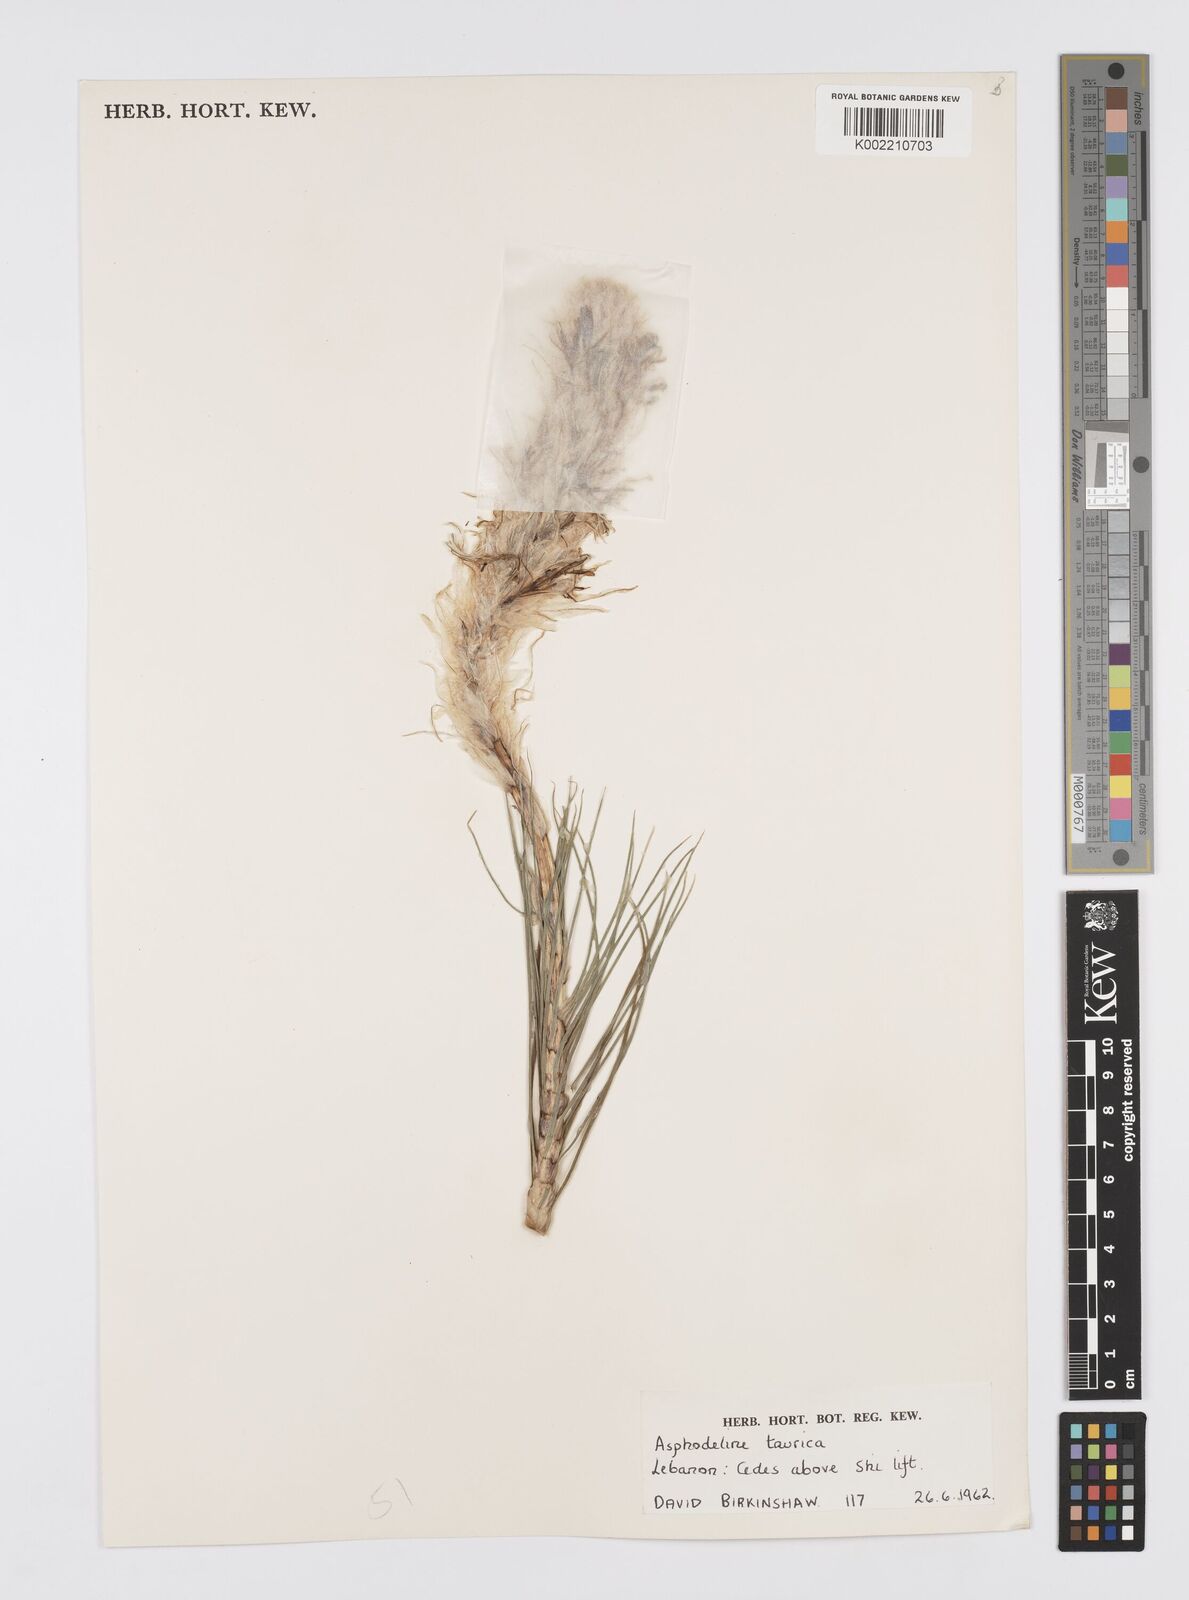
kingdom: Plantae
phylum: Tracheophyta
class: Liliopsida
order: Asparagales
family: Asphodelaceae
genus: Asphodeline
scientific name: Asphodeline taurica
